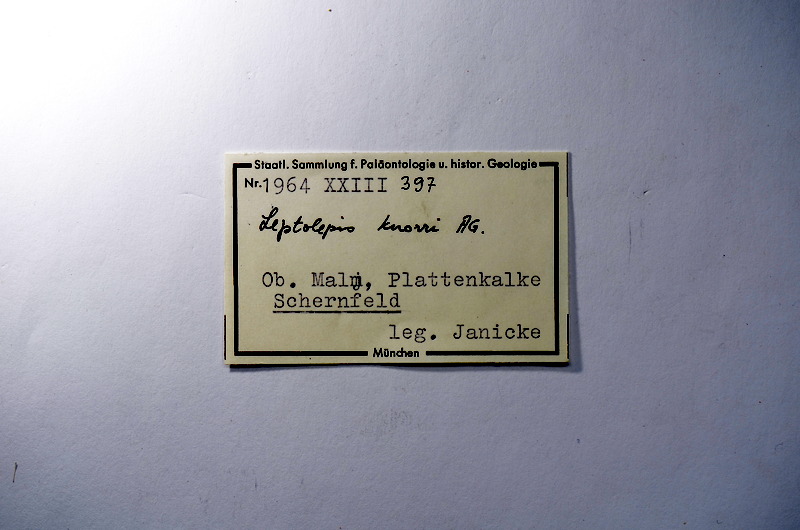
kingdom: Animalia
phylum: Chordata
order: Elopiformes
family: Anaethalionidae
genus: Anaethalion
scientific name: Anaethalion knorri
